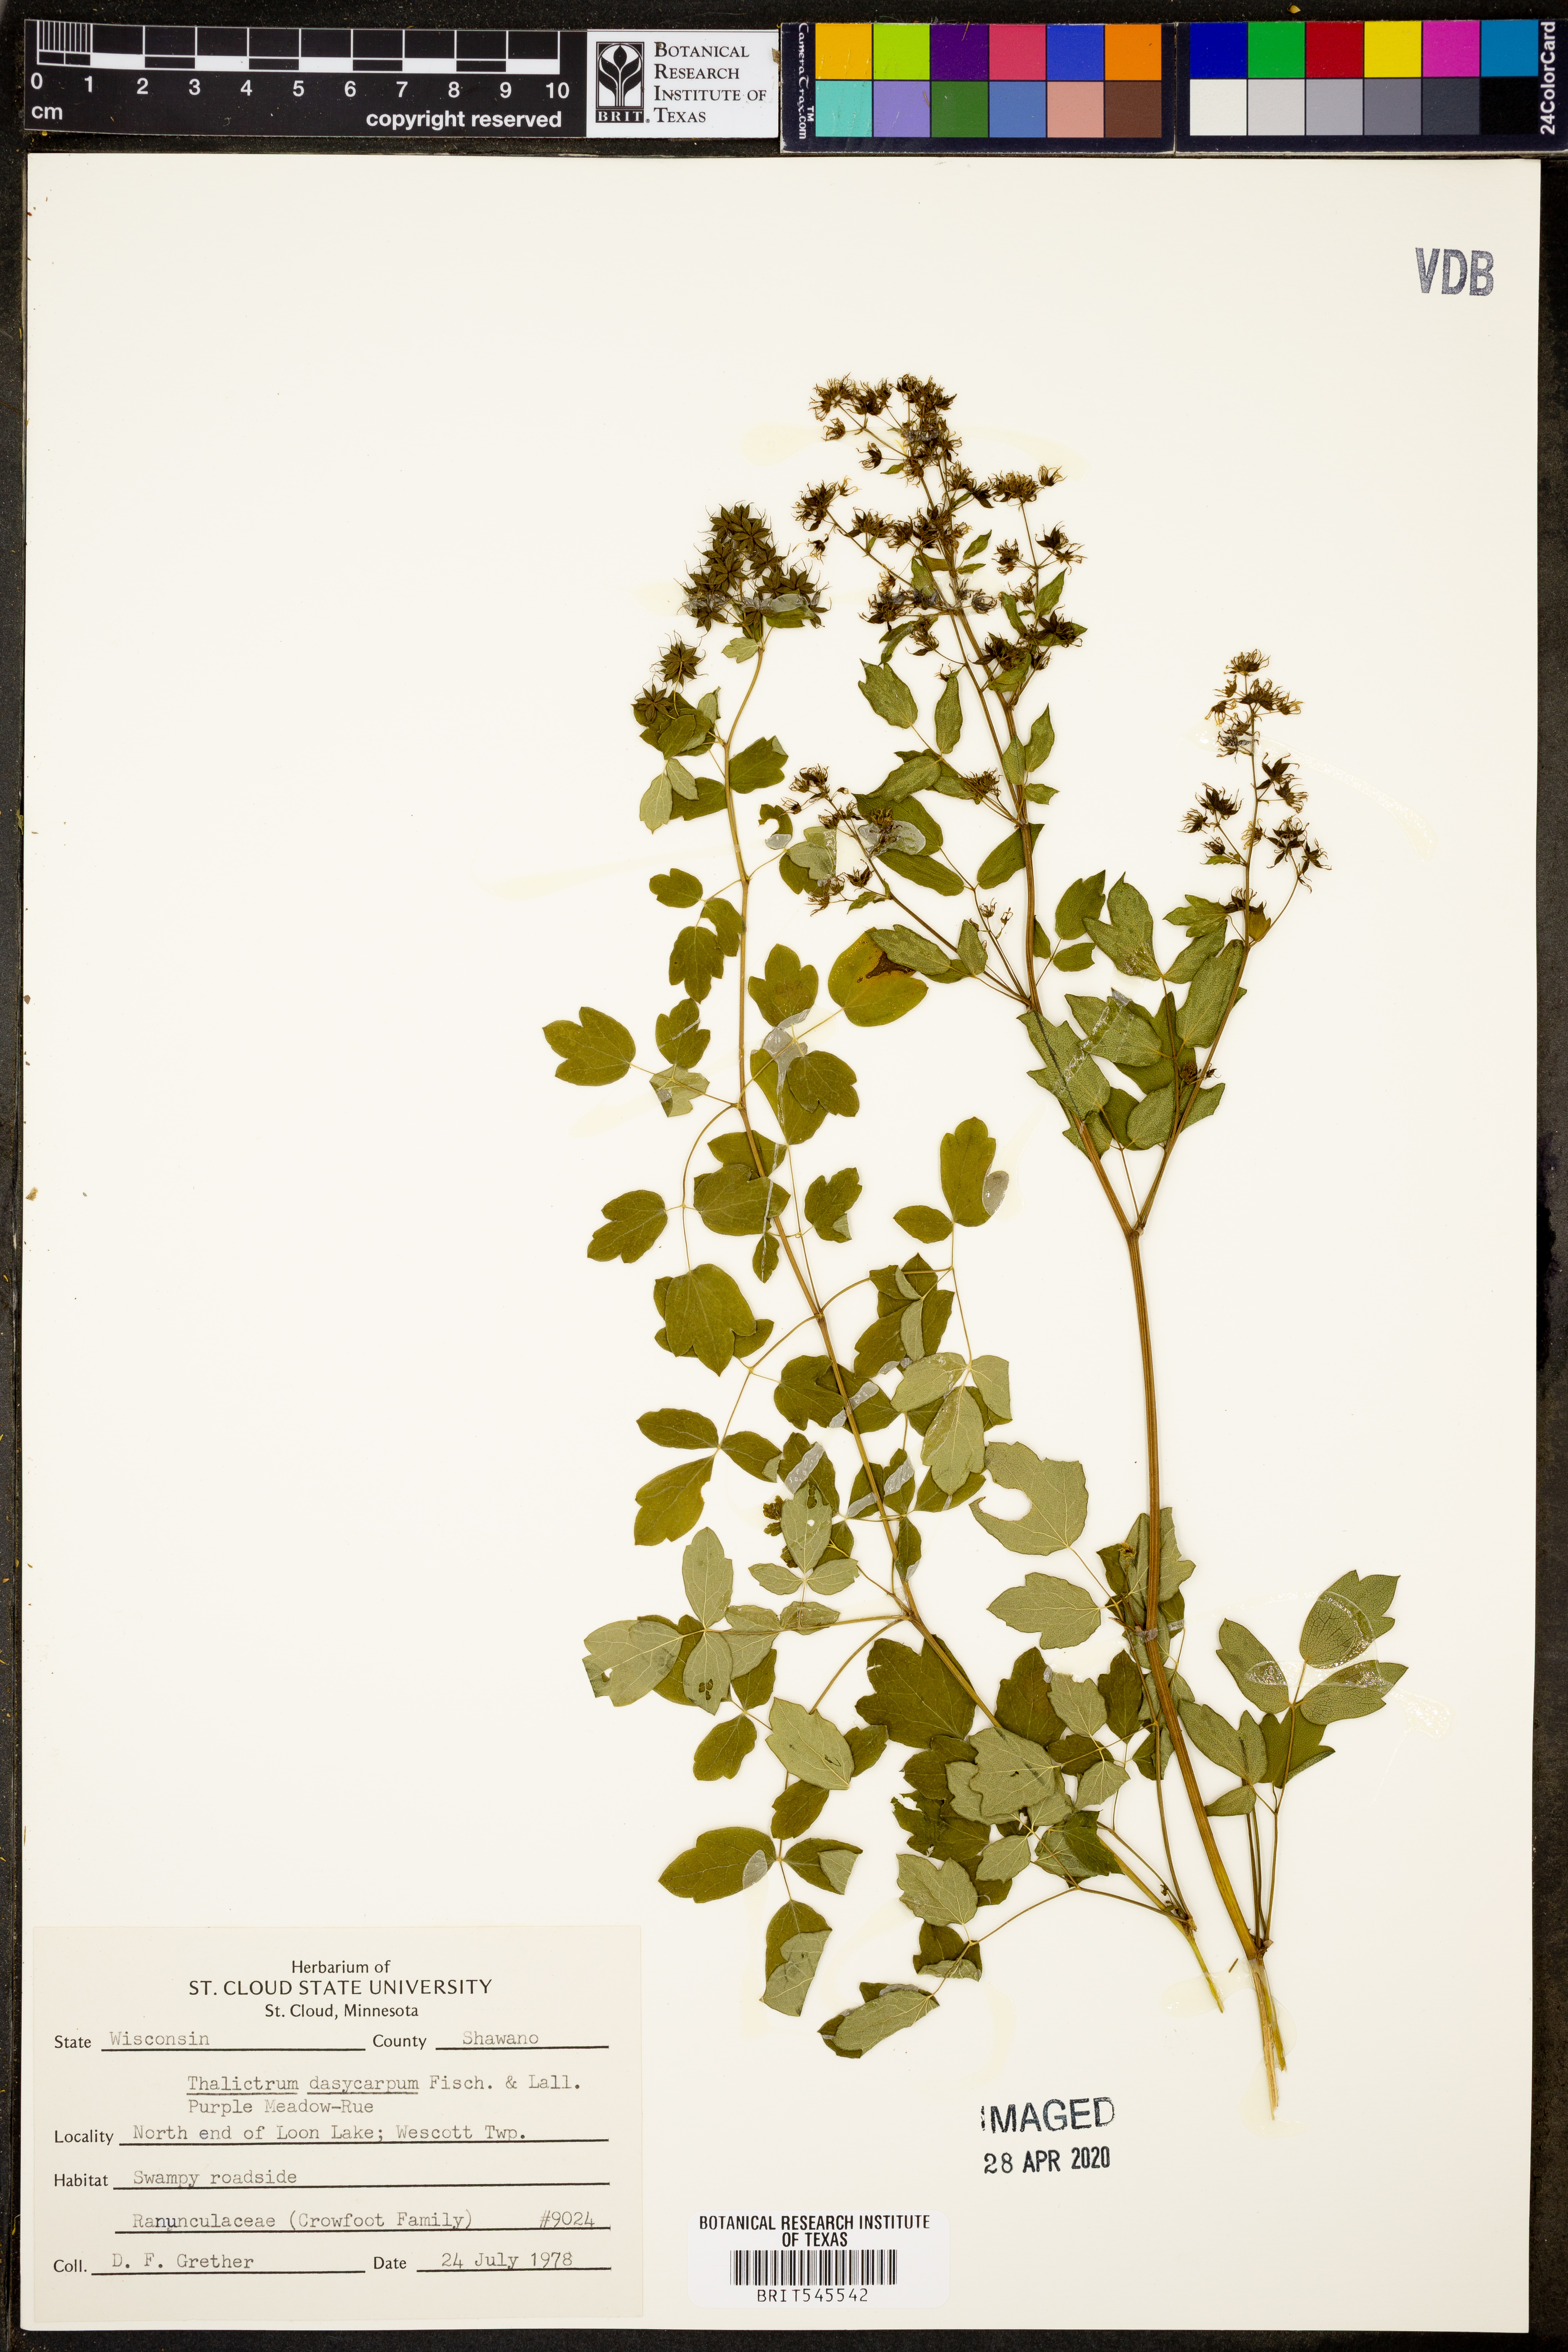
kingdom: Plantae
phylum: Tracheophyta
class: Magnoliopsida
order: Ranunculales
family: Ranunculaceae
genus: Thalictrum
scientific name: Thalictrum dasycarpum
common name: Purple meadow-rue
